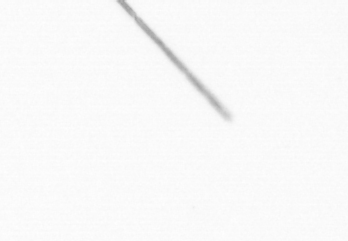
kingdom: Chromista
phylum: Ochrophyta
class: Bacillariophyceae
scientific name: Bacillariophyceae
